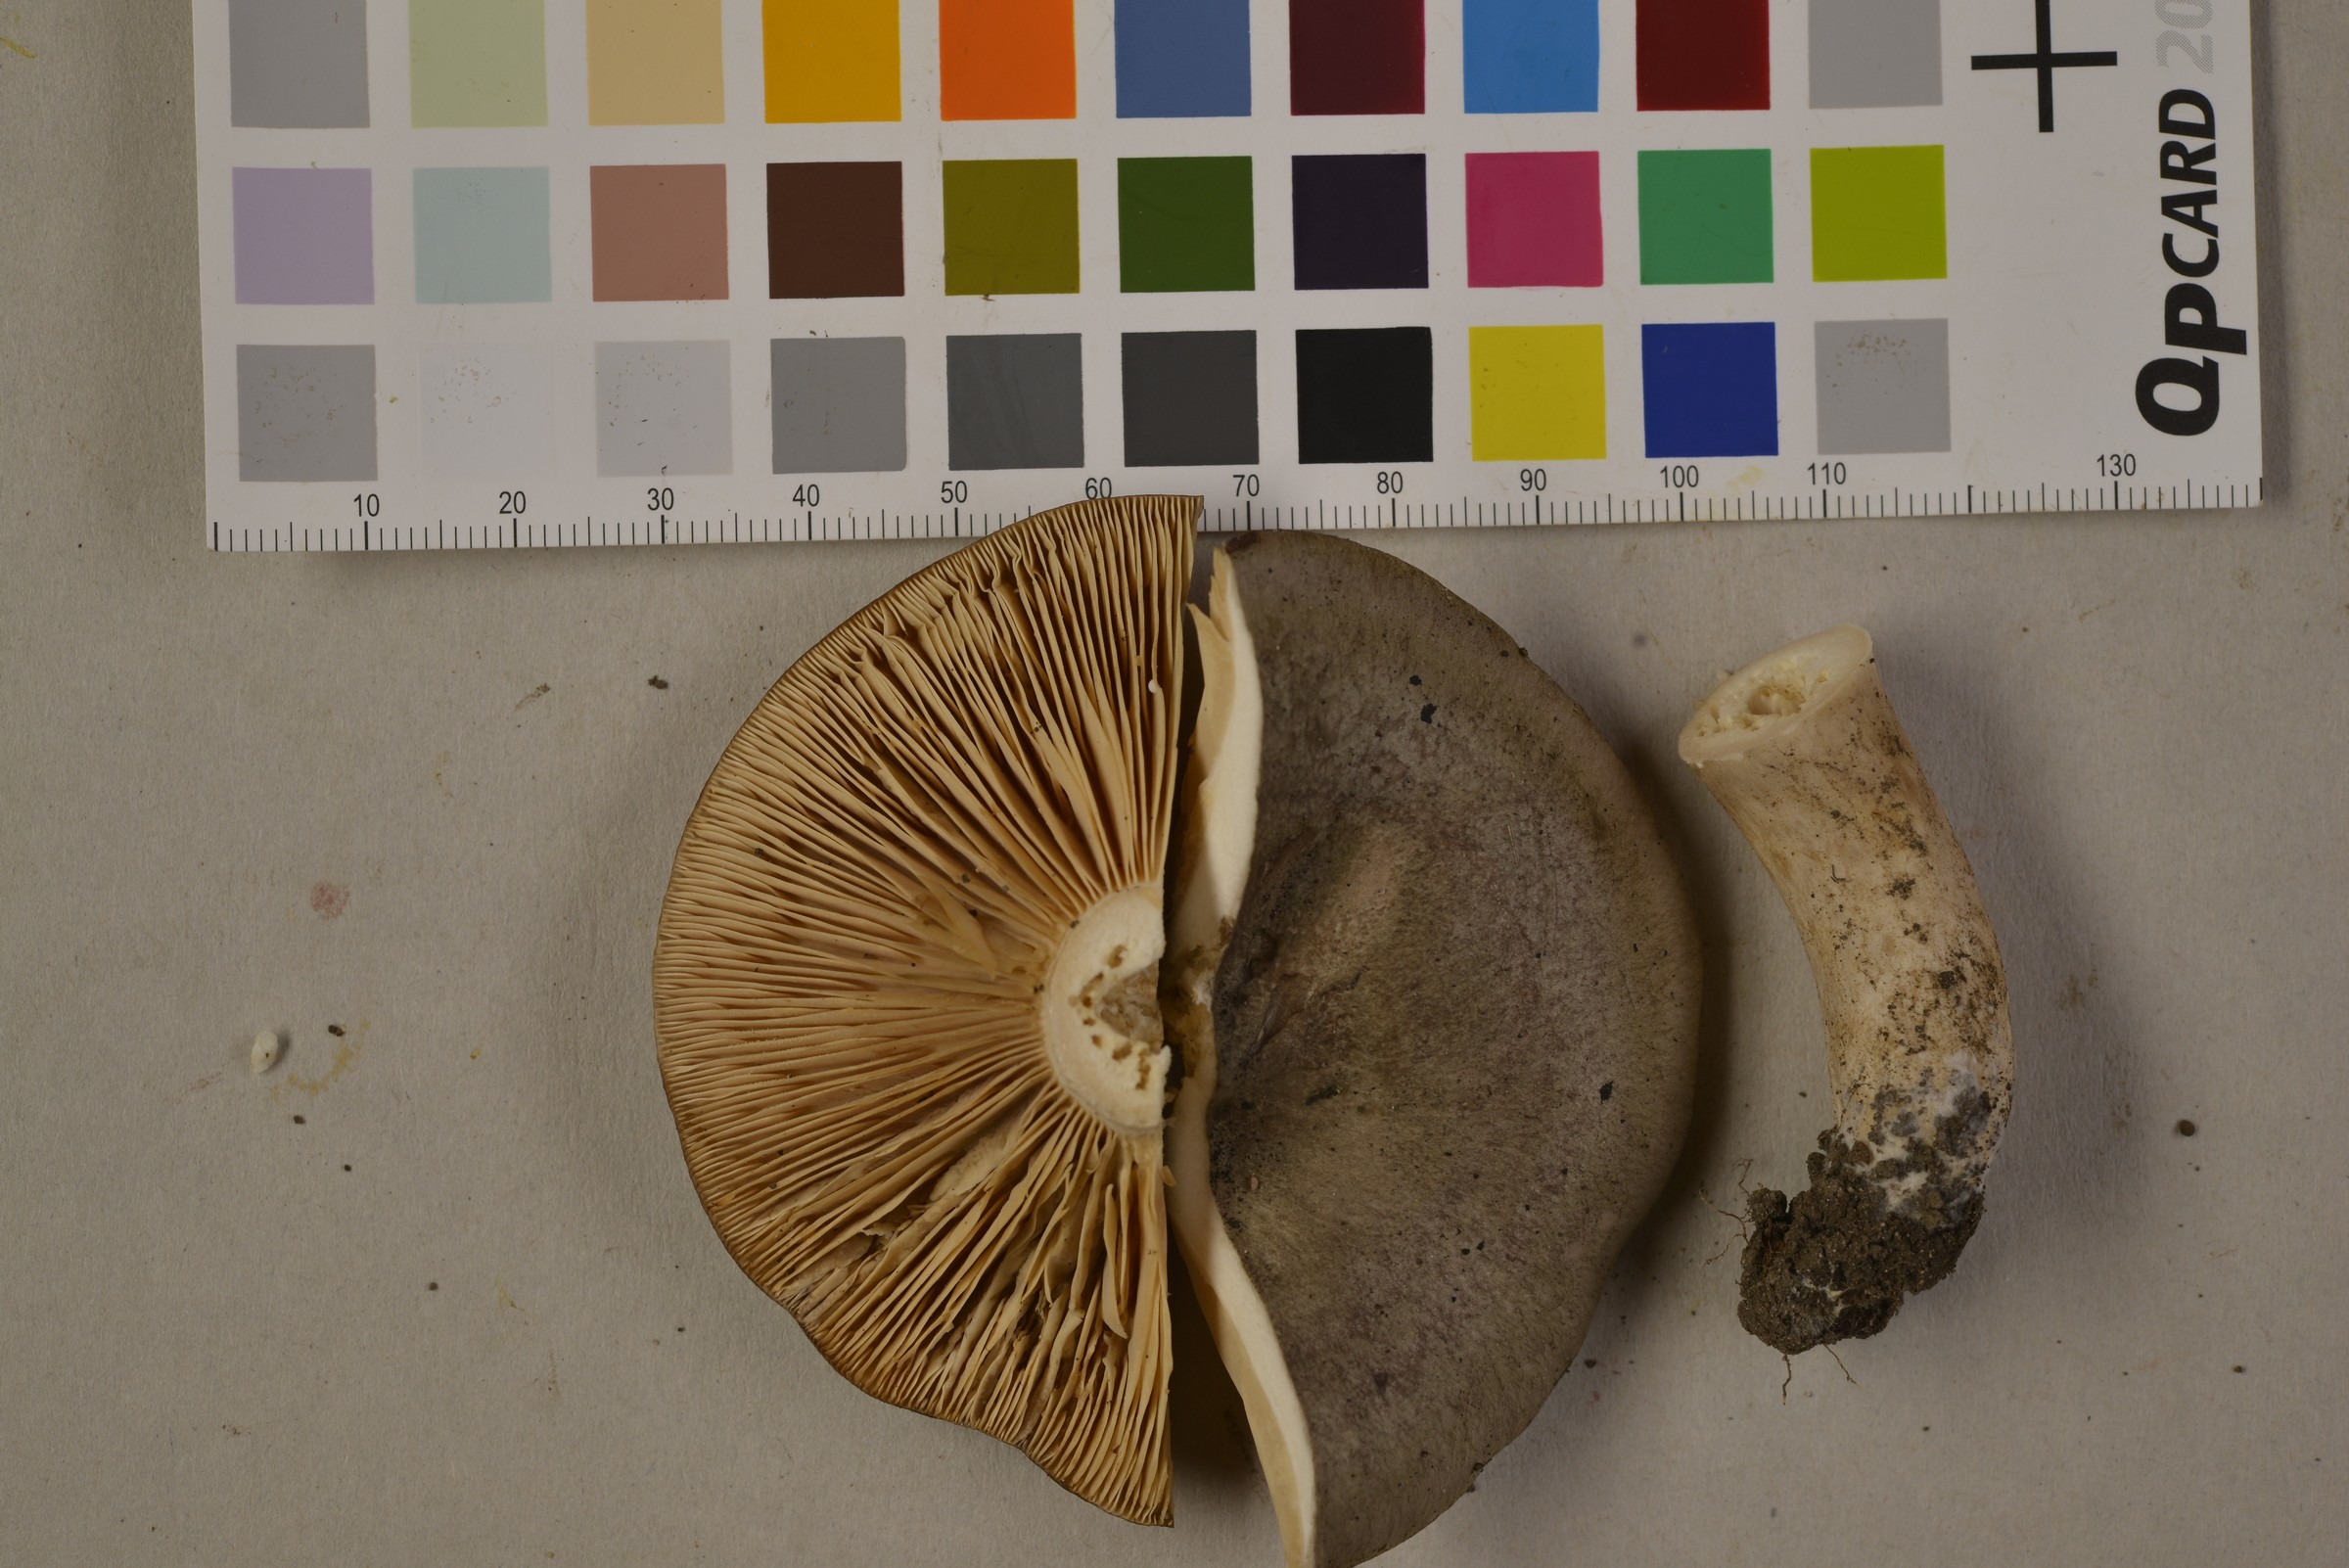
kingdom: Fungi
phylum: Basidiomycota
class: Agaricomycetes
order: Russulales
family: Russulaceae
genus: Lactarius
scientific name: Lactarius circellatus
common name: Circled milkcap
